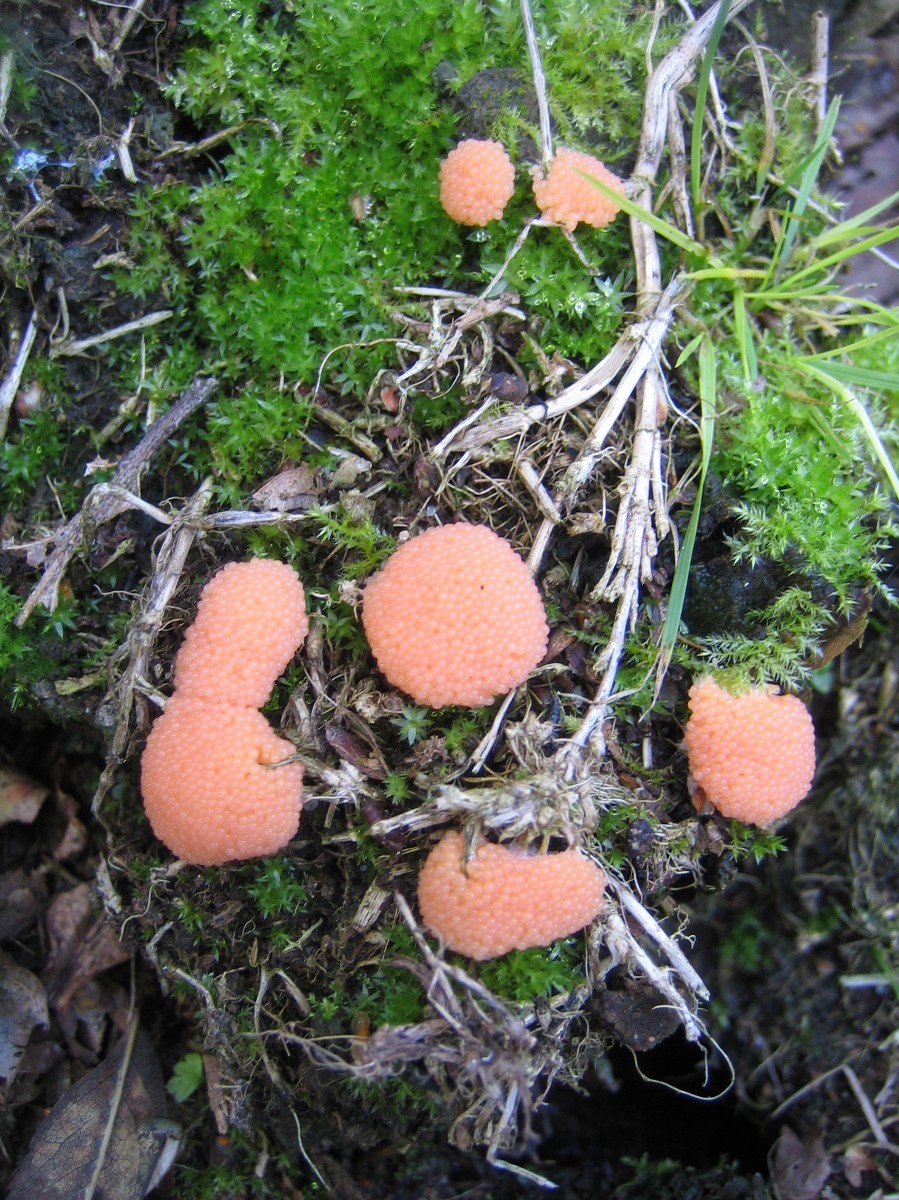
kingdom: Protozoa
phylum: Mycetozoa
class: Myxomycetes
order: Cribrariales
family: Tubiferaceae
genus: Tubifera
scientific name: Tubifera ferruginosa
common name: kanel-støvrør
